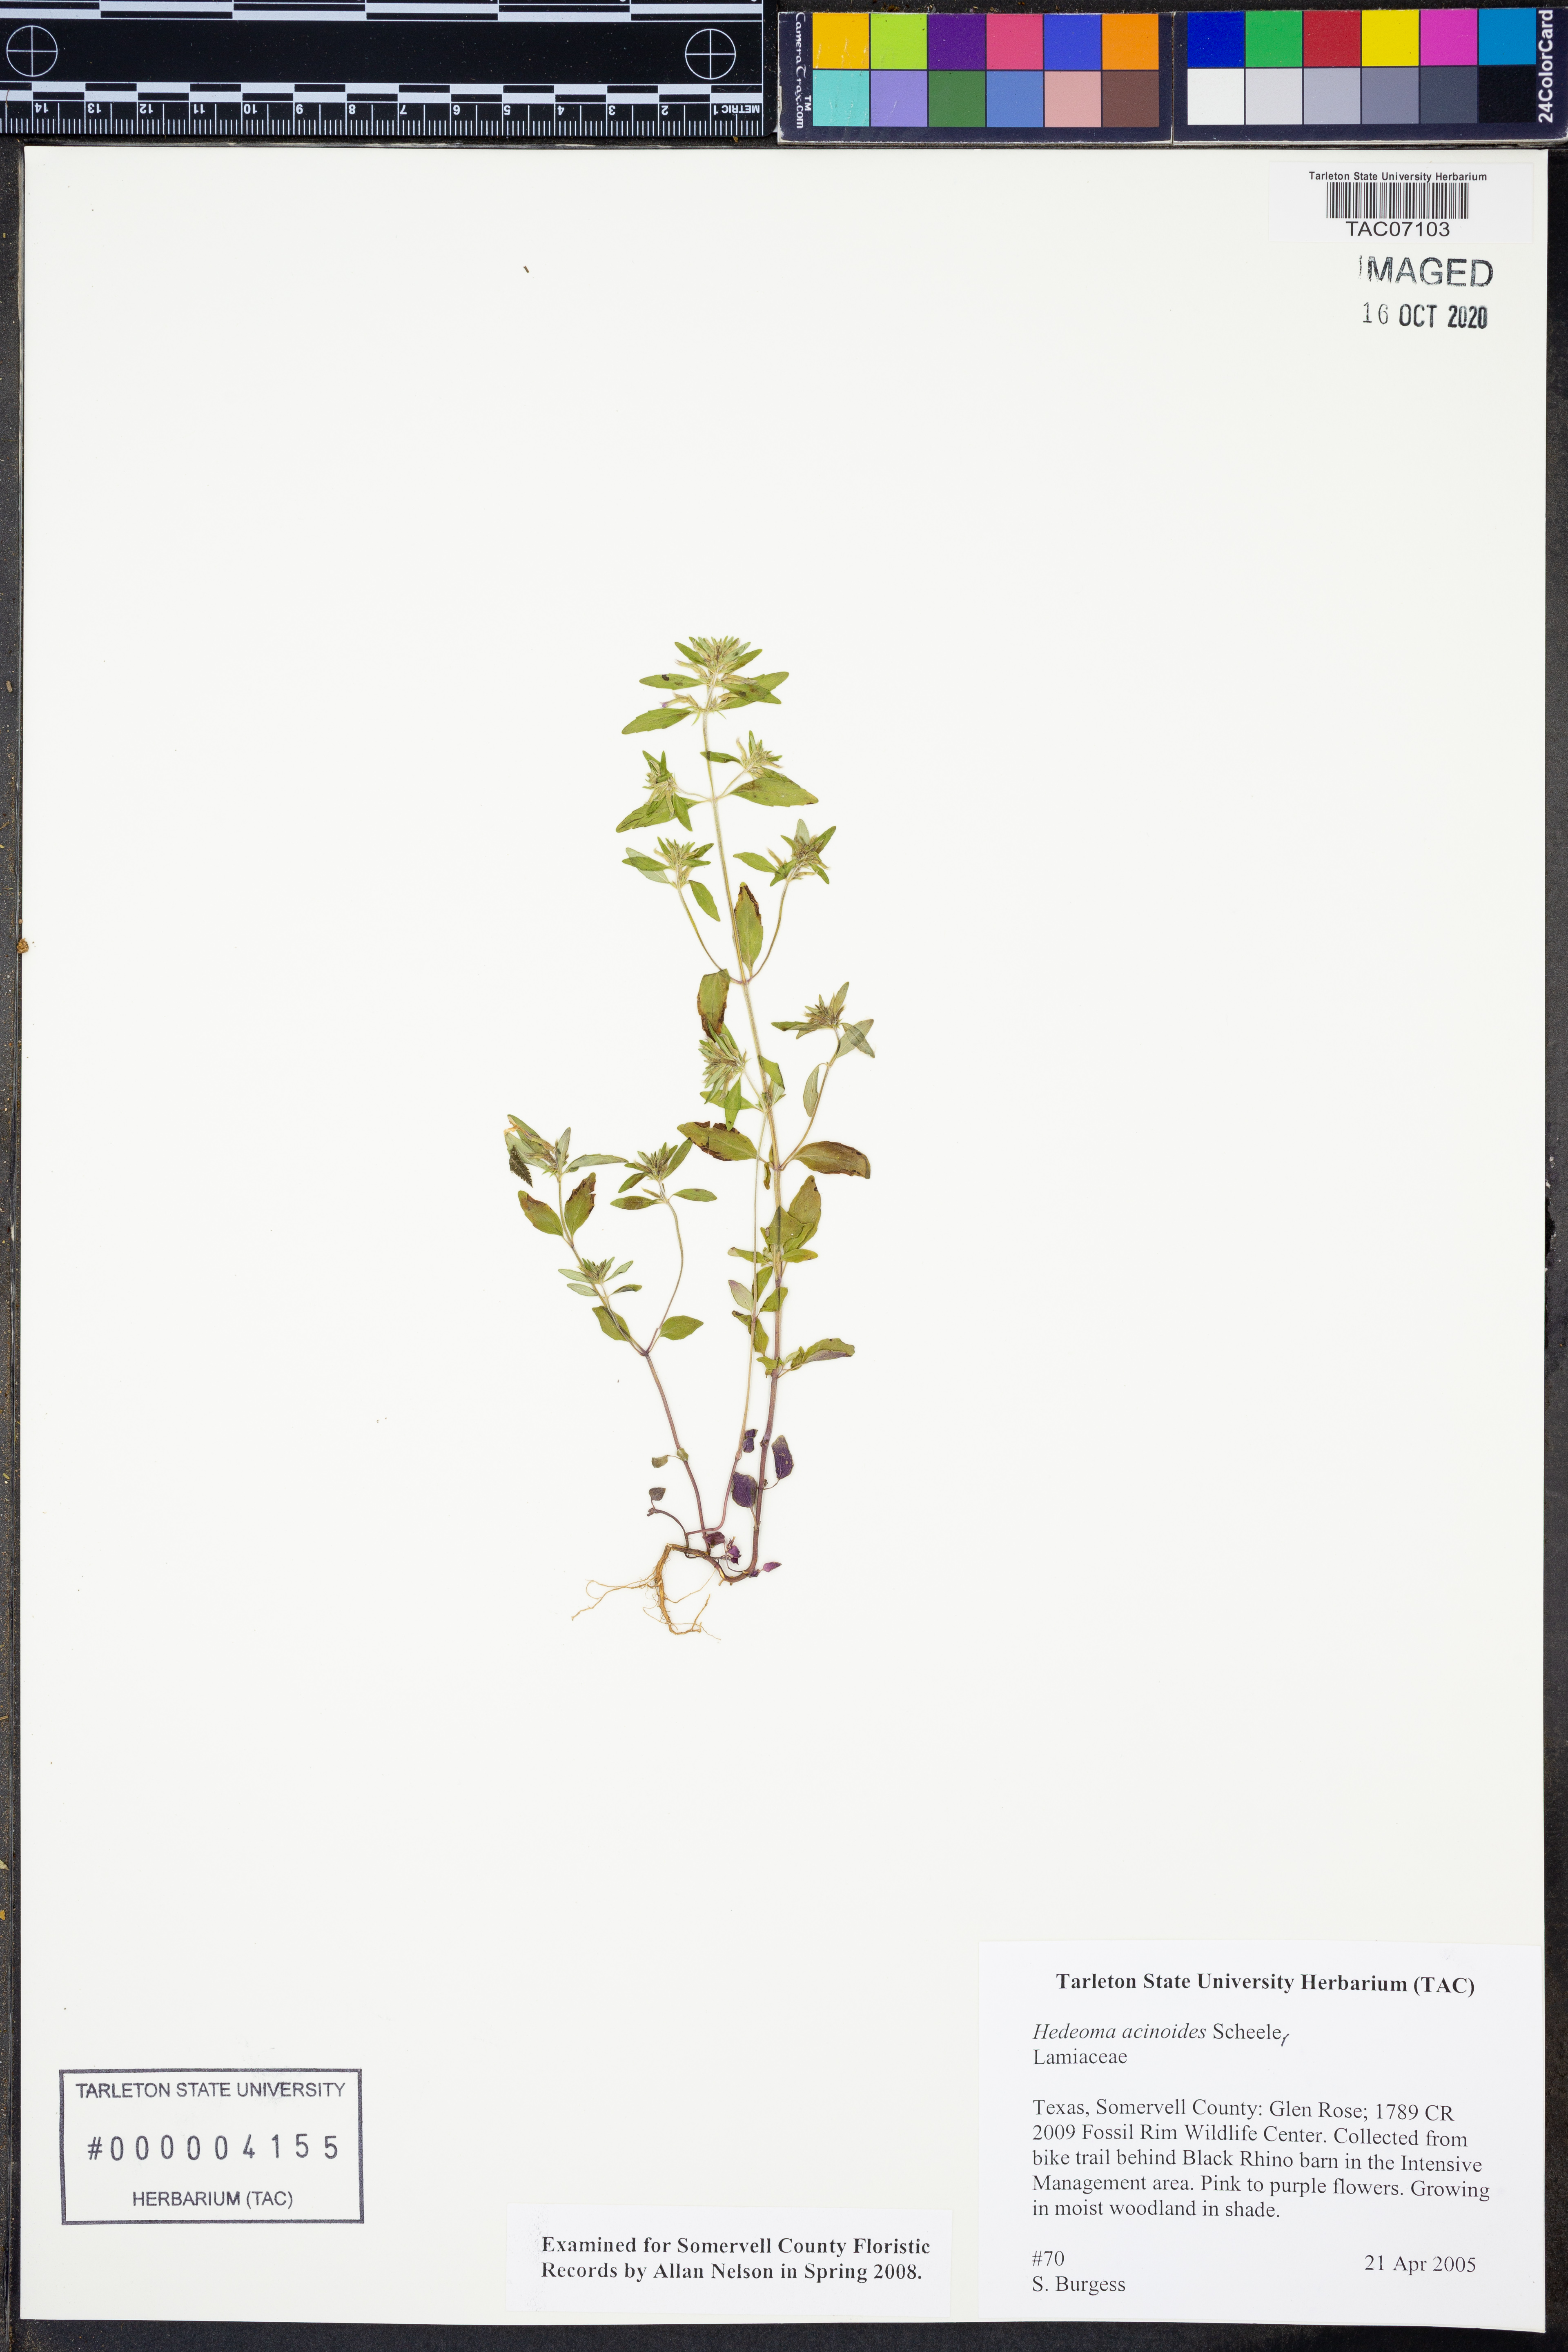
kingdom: Plantae
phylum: Tracheophyta
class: Magnoliopsida
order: Lamiales
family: Lamiaceae
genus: Hedeoma
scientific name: Hedeoma acinoides
